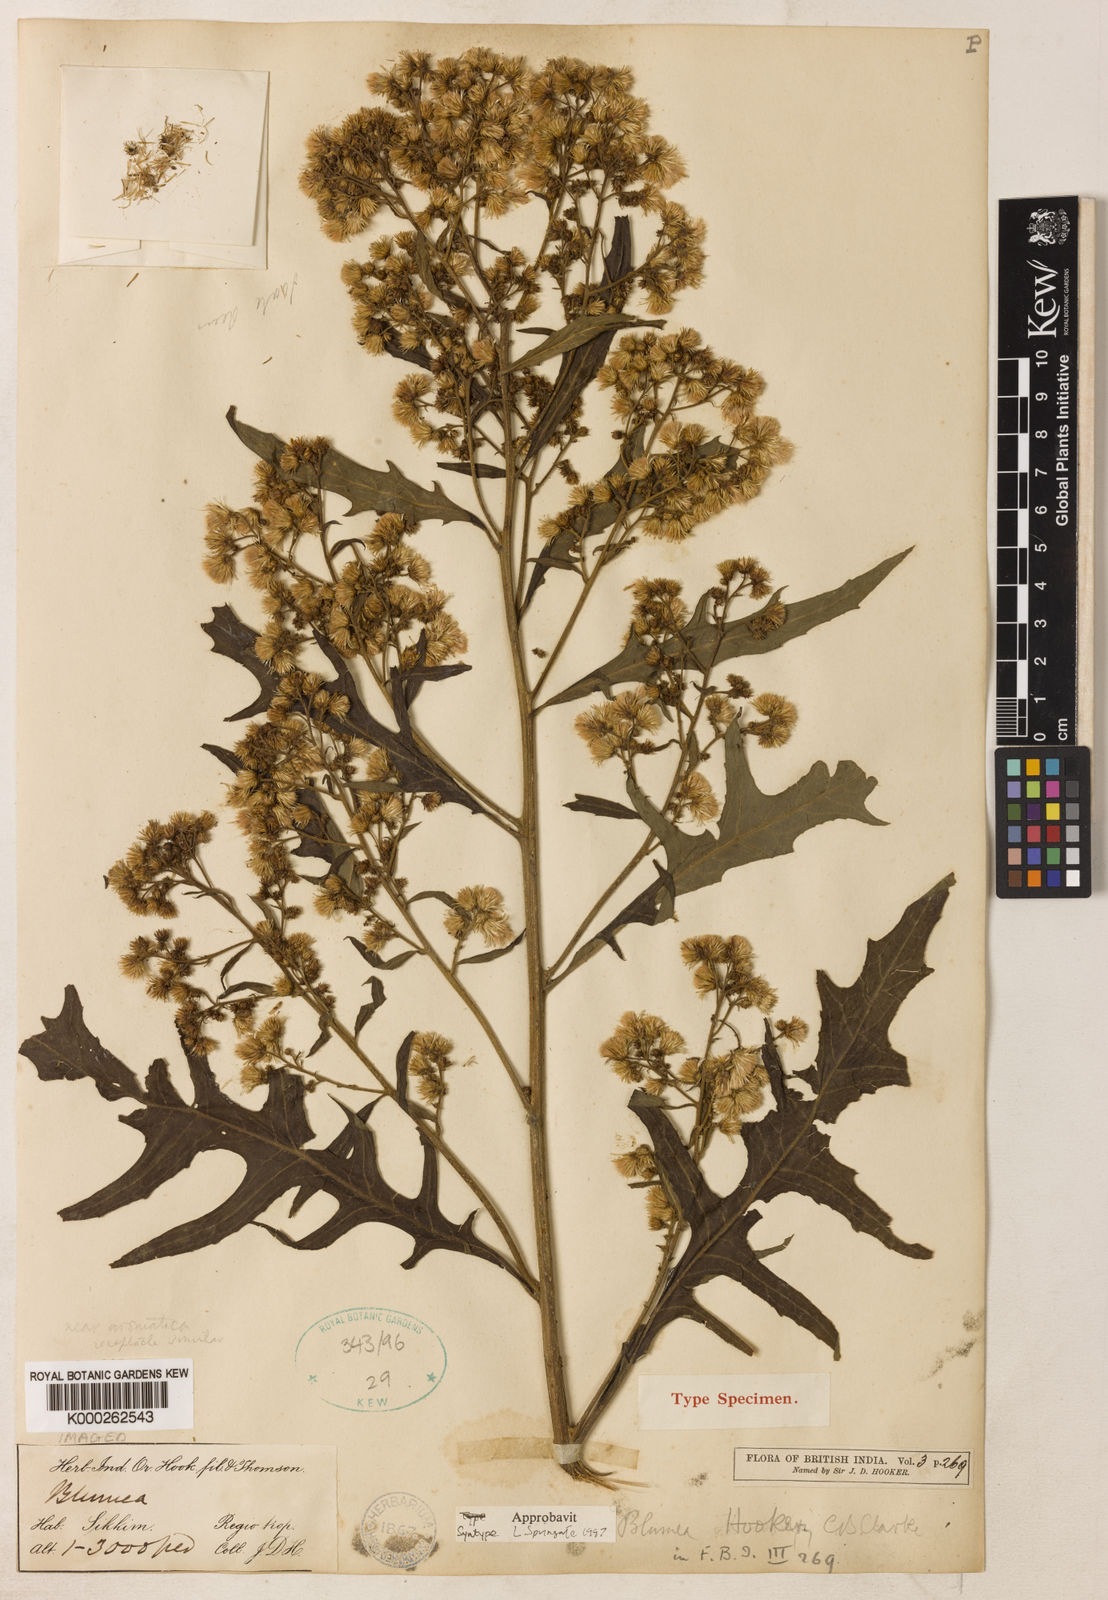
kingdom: Plantae
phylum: Tracheophyta
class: Magnoliopsida
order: Asterales
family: Asteraceae
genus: Blumea
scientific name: Blumea densiflora
